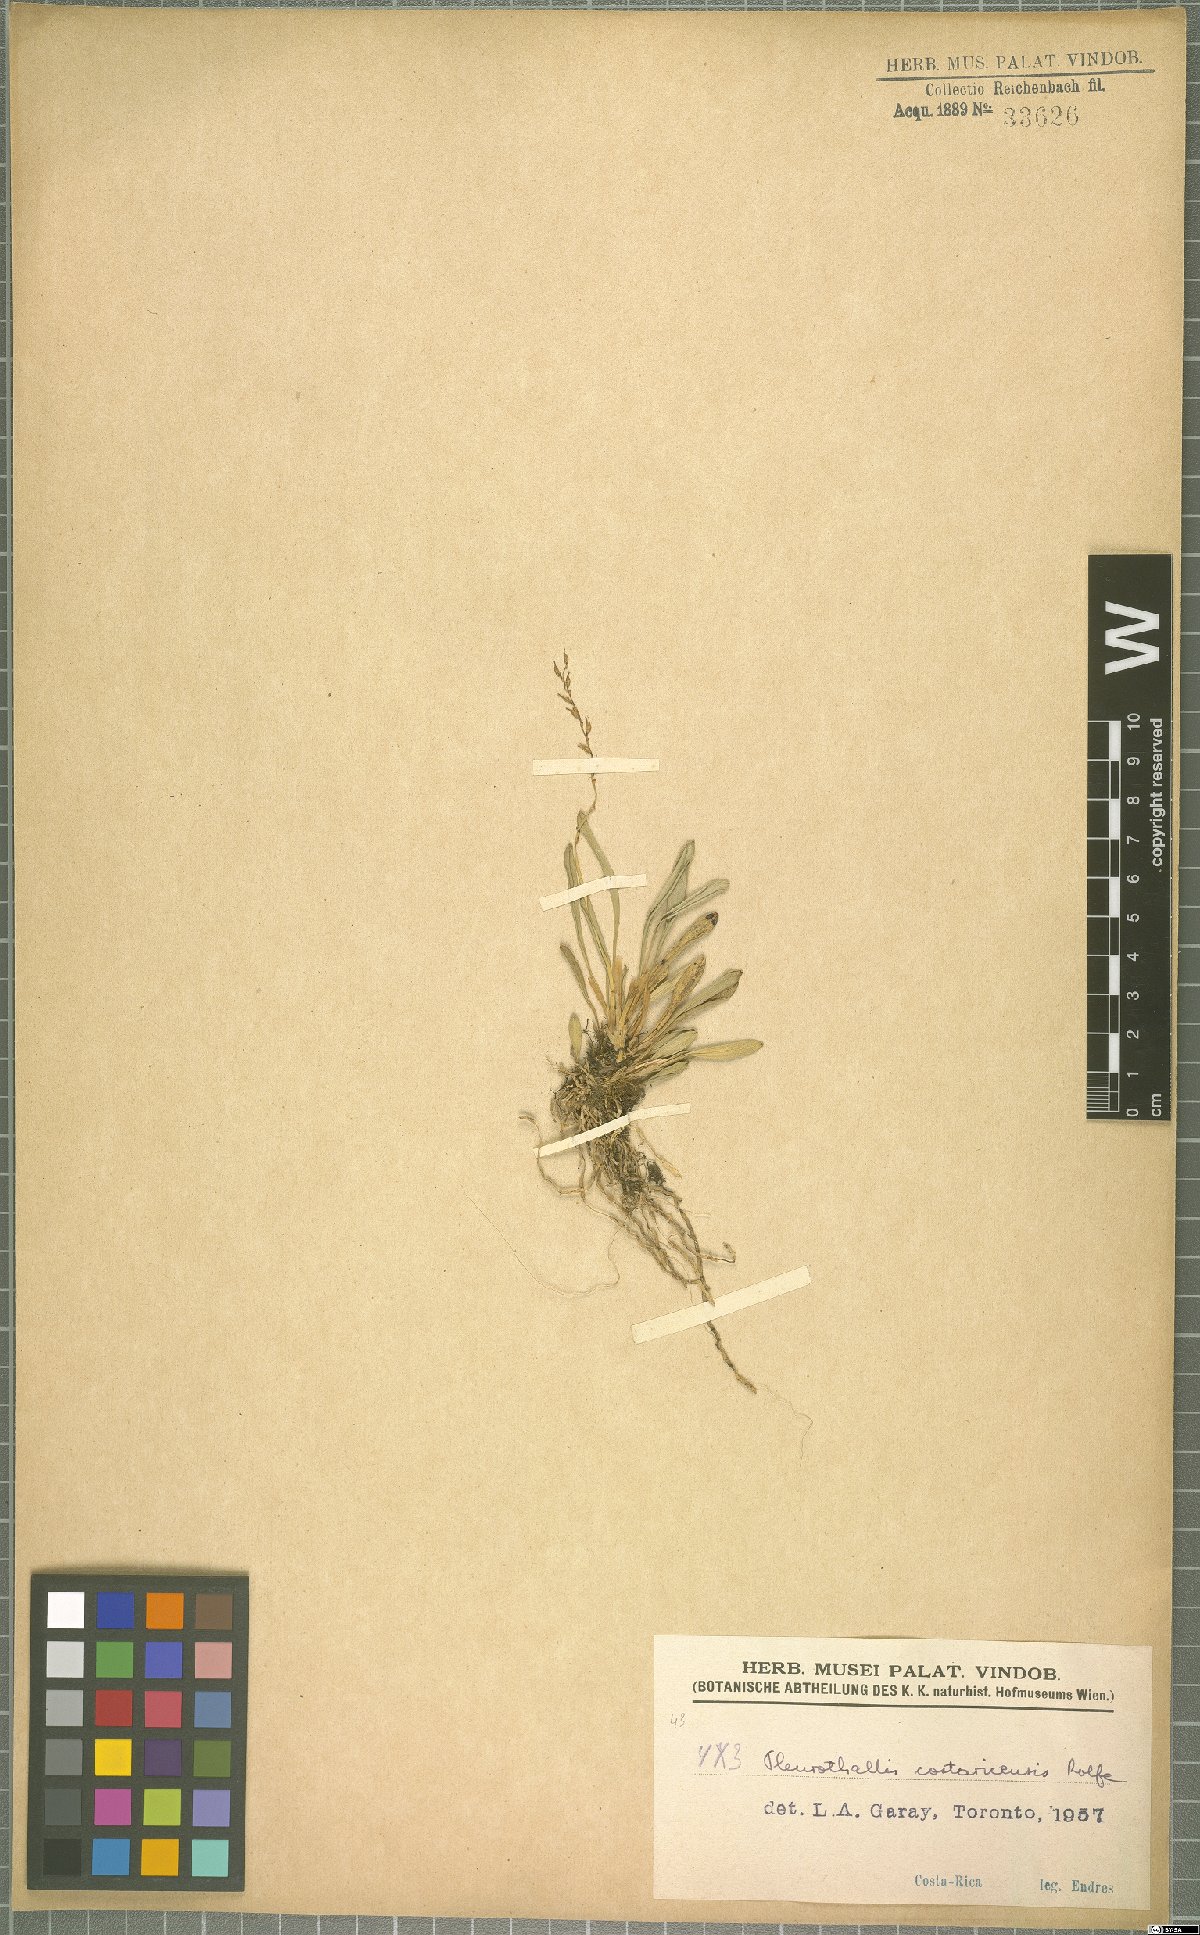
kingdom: Plantae
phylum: Tracheophyta
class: Liliopsida
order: Asparagales
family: Orchidaceae
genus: Specklinia
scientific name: Specklinia costaricensis
